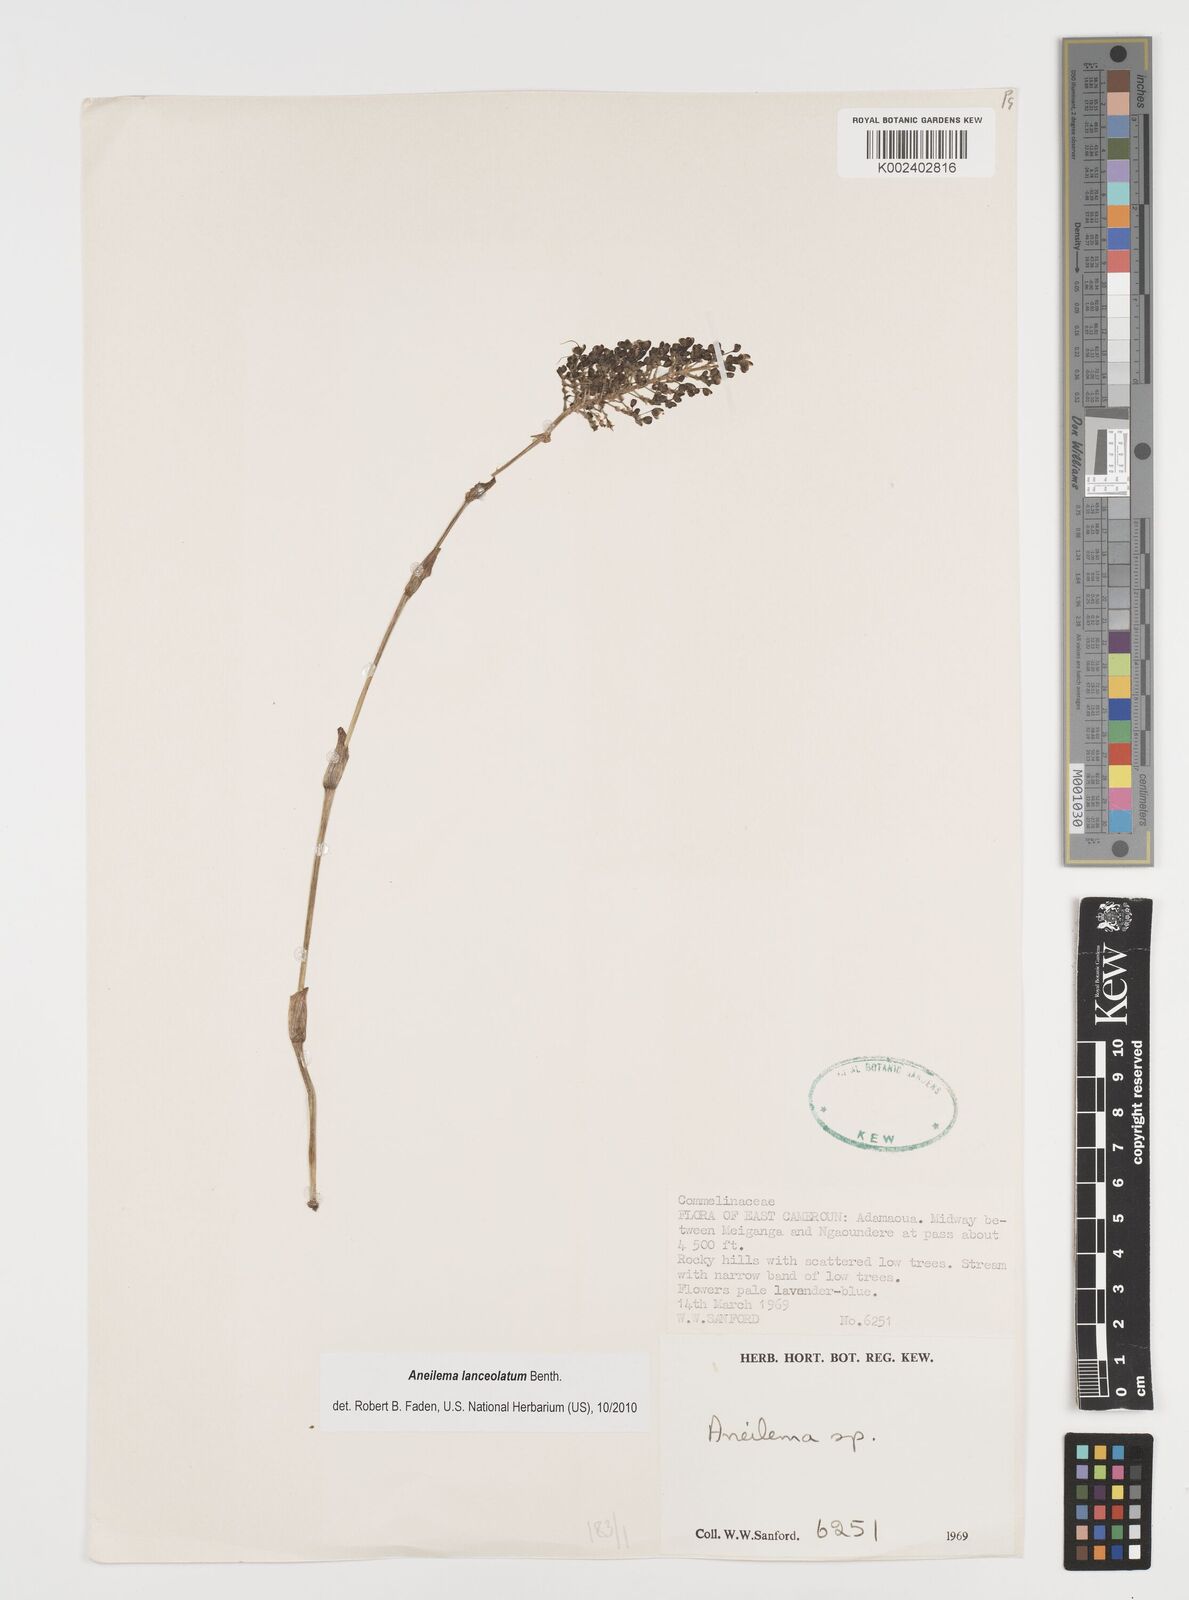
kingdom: Plantae
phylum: Tracheophyta
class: Liliopsida
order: Commelinales
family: Commelinaceae
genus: Aneilema
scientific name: Aneilema lanceolatum
